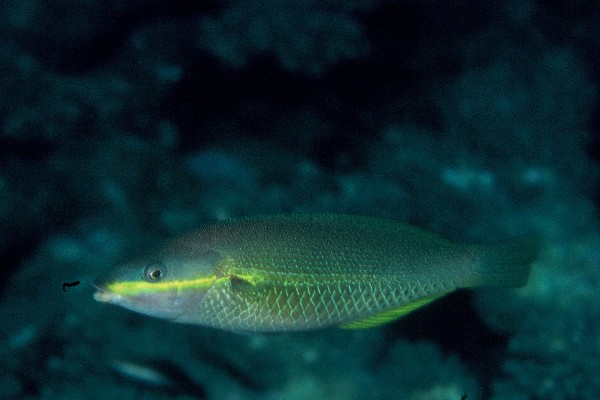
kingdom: Animalia
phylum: Chordata
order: Perciformes
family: Labridae
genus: Stethojulis
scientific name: Stethojulis maculata
